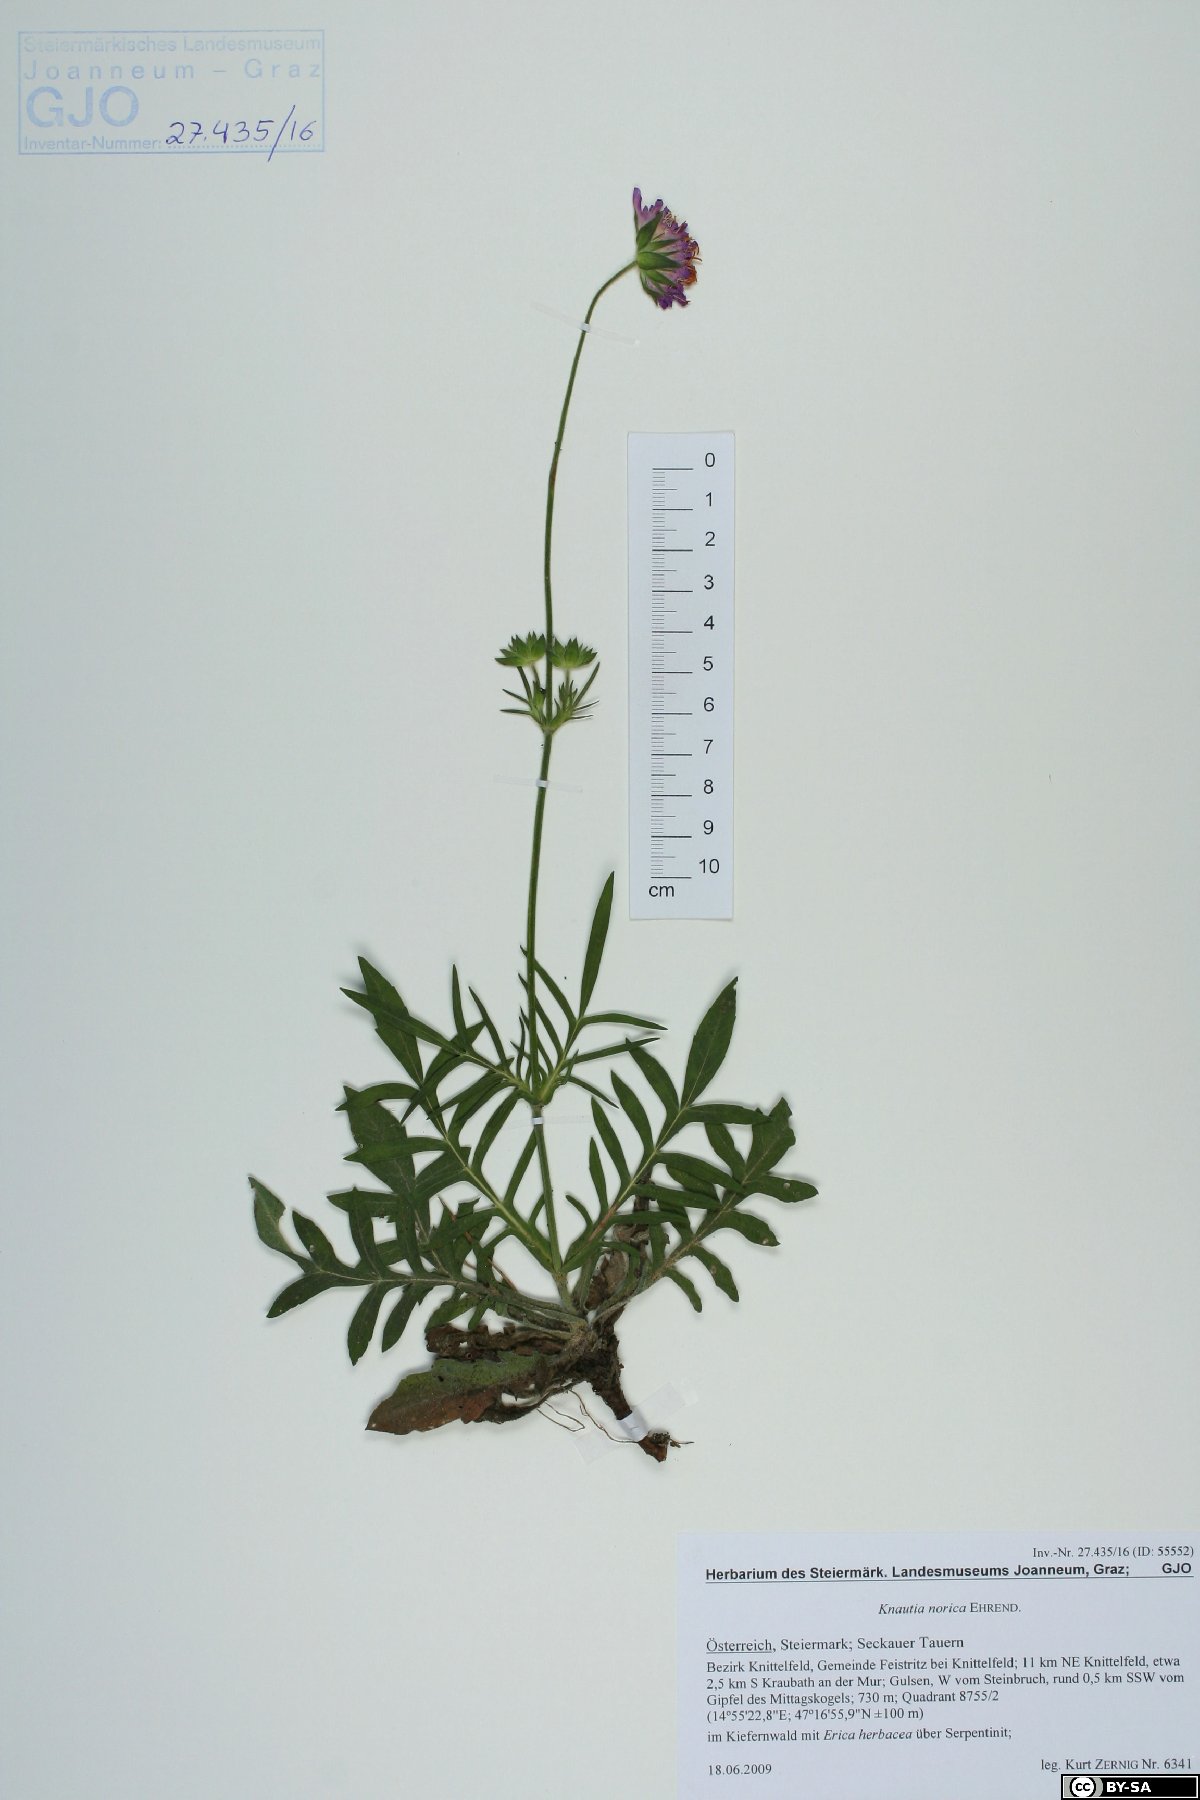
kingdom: Plantae
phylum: Tracheophyta
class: Magnoliopsida
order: Dipsacales
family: Caprifoliaceae
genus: Knautia
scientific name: Knautia norica
